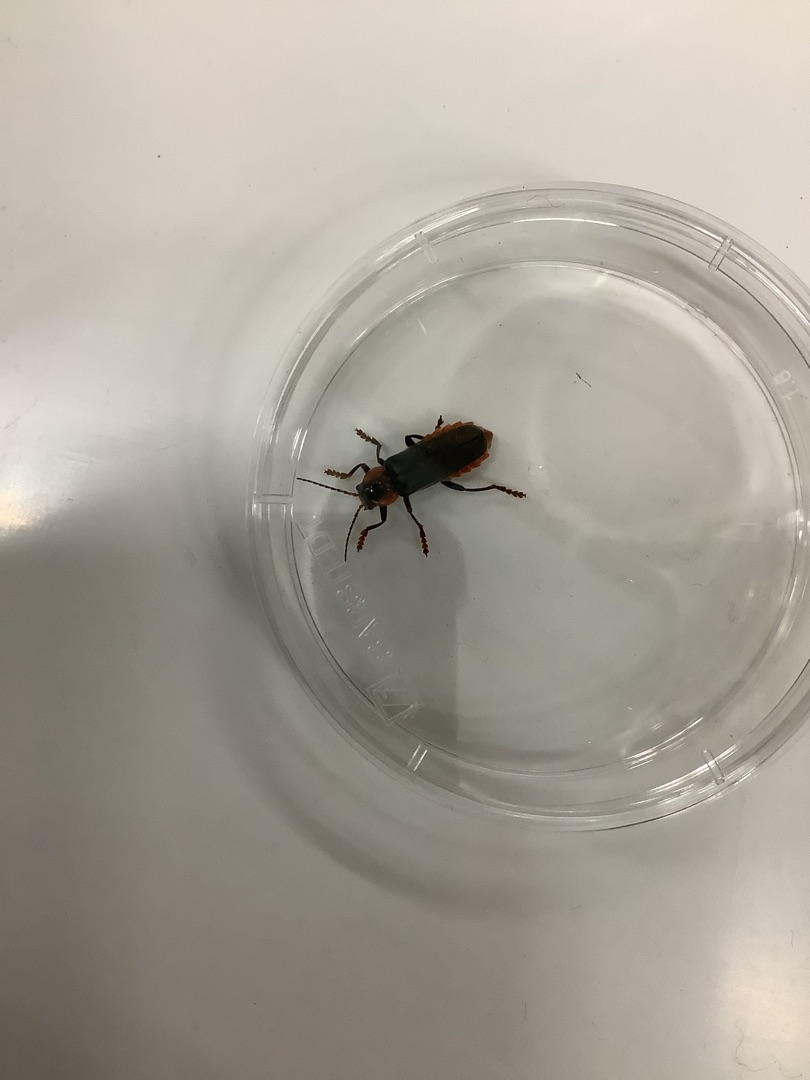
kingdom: Animalia
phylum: Arthropoda
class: Insecta
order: Coleoptera
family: Cantharidae
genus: Cantharis
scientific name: Cantharis fusca
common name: Stor blødvinge
